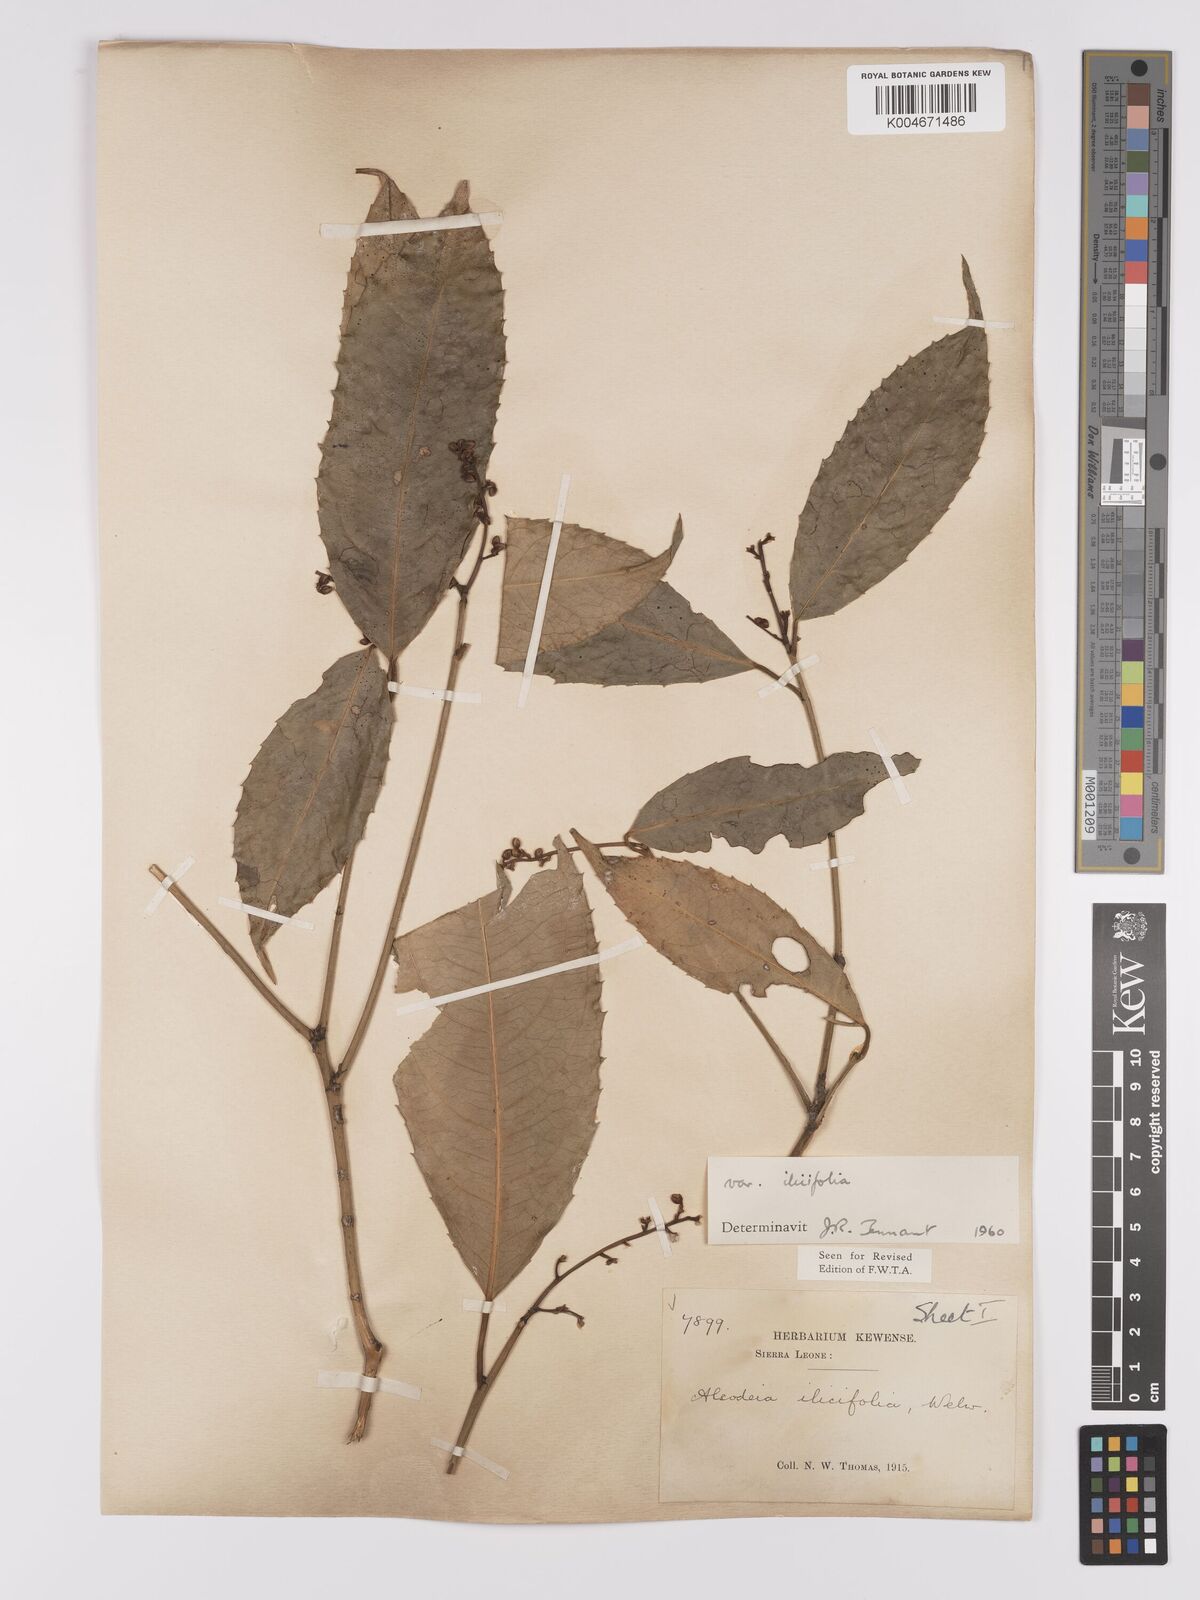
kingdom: Plantae
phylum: Tracheophyta
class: Magnoliopsida
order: Malpighiales
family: Violaceae
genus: Rinorea
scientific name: Rinorea ilicifolia
